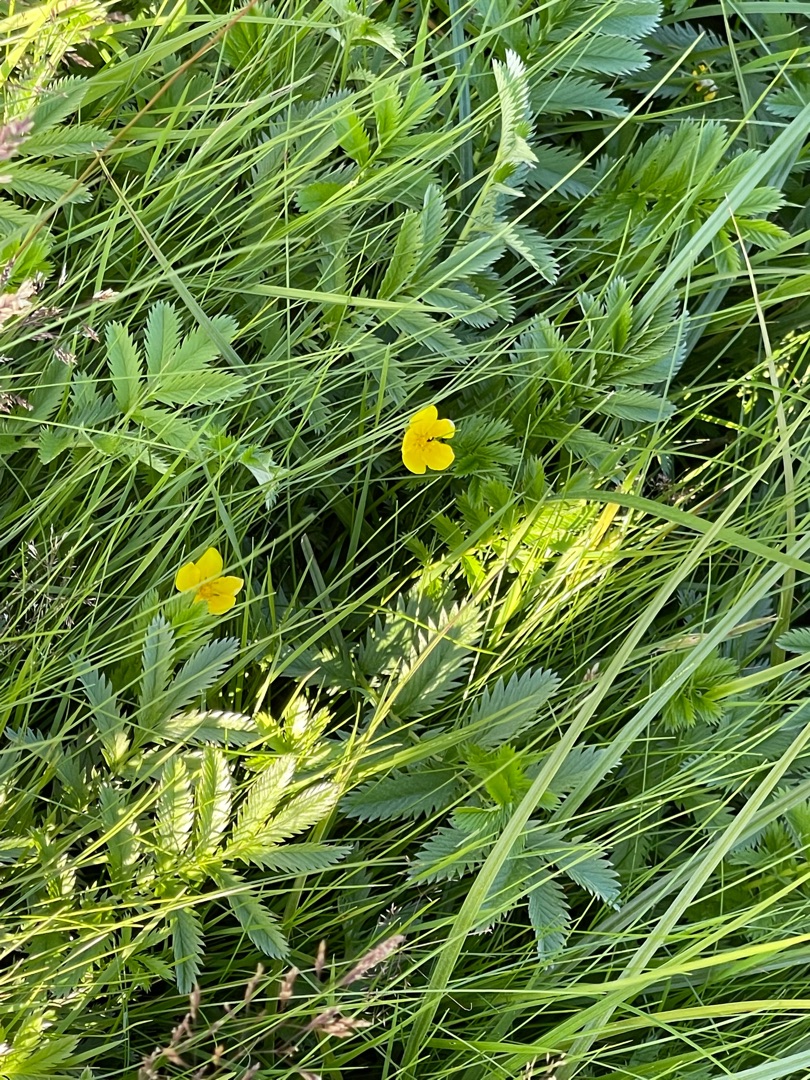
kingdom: Plantae
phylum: Tracheophyta
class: Magnoliopsida
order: Rosales
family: Rosaceae
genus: Argentina
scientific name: Argentina anserina
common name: Gåsepotentil
